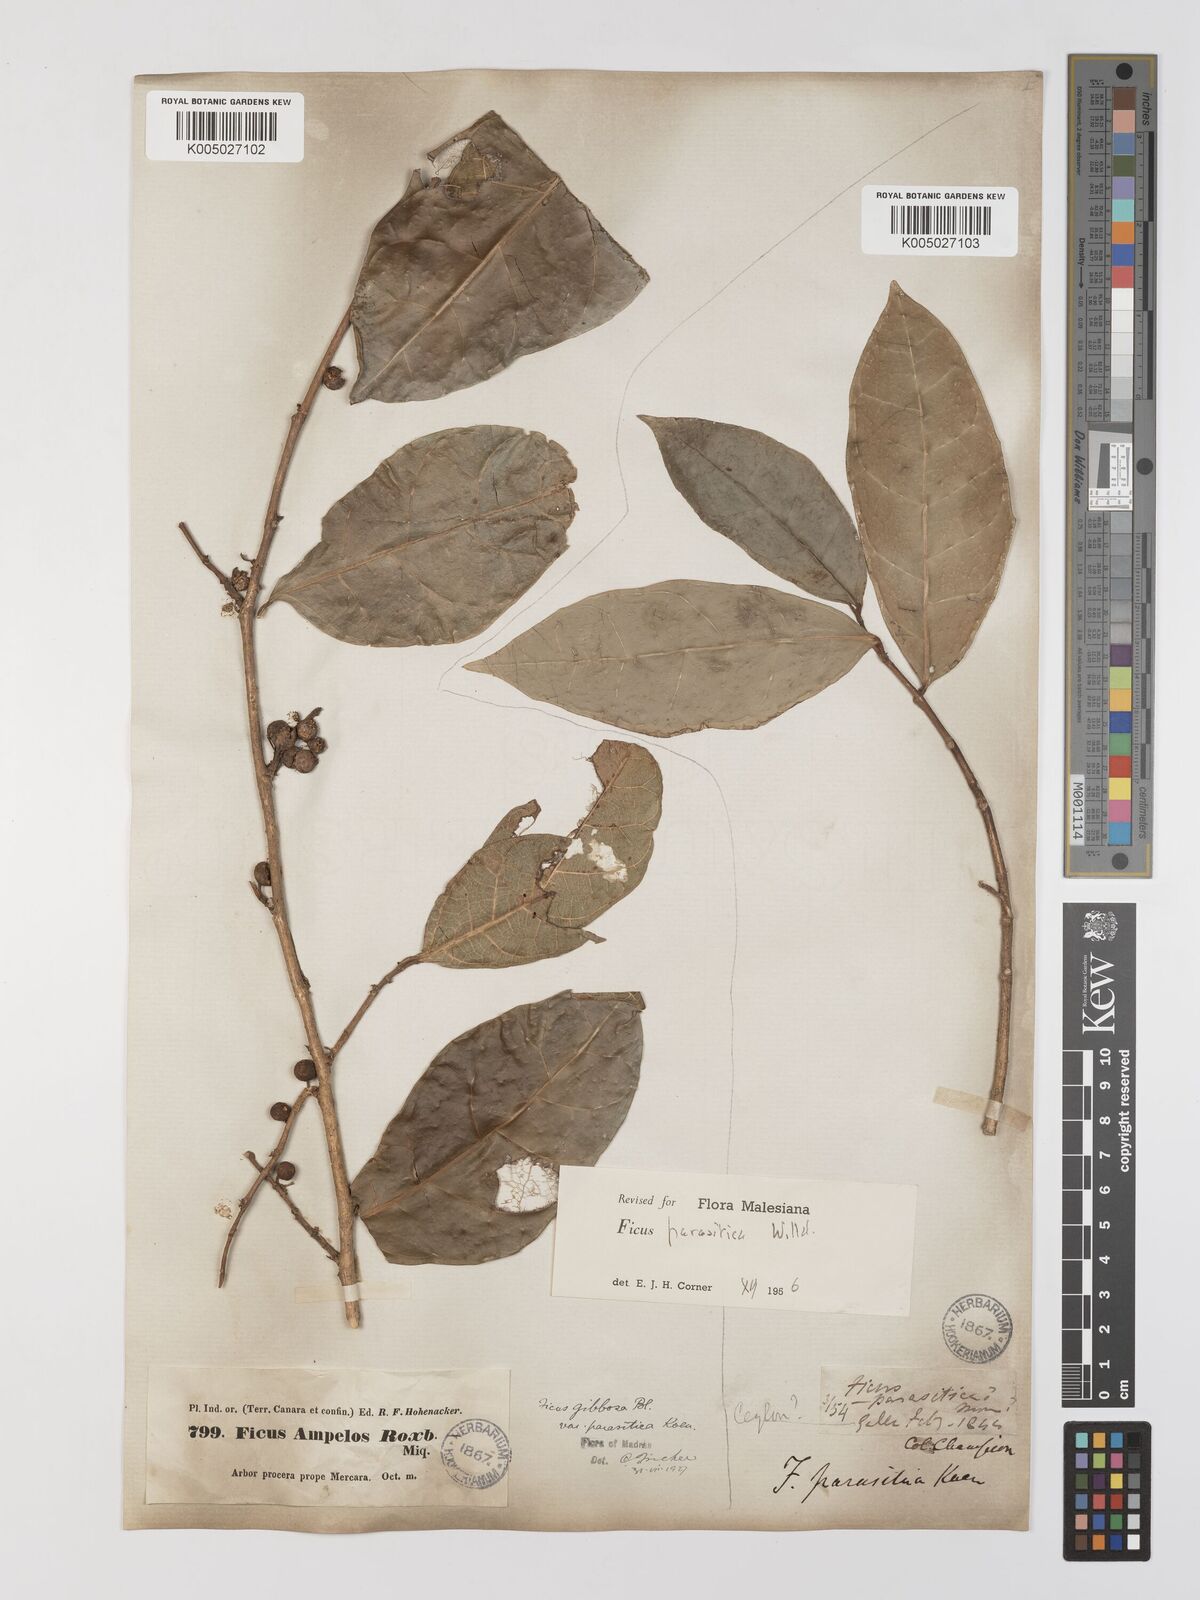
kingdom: Plantae
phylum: Tracheophyta
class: Magnoliopsida
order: Rosales
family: Moraceae
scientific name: Moraceae
